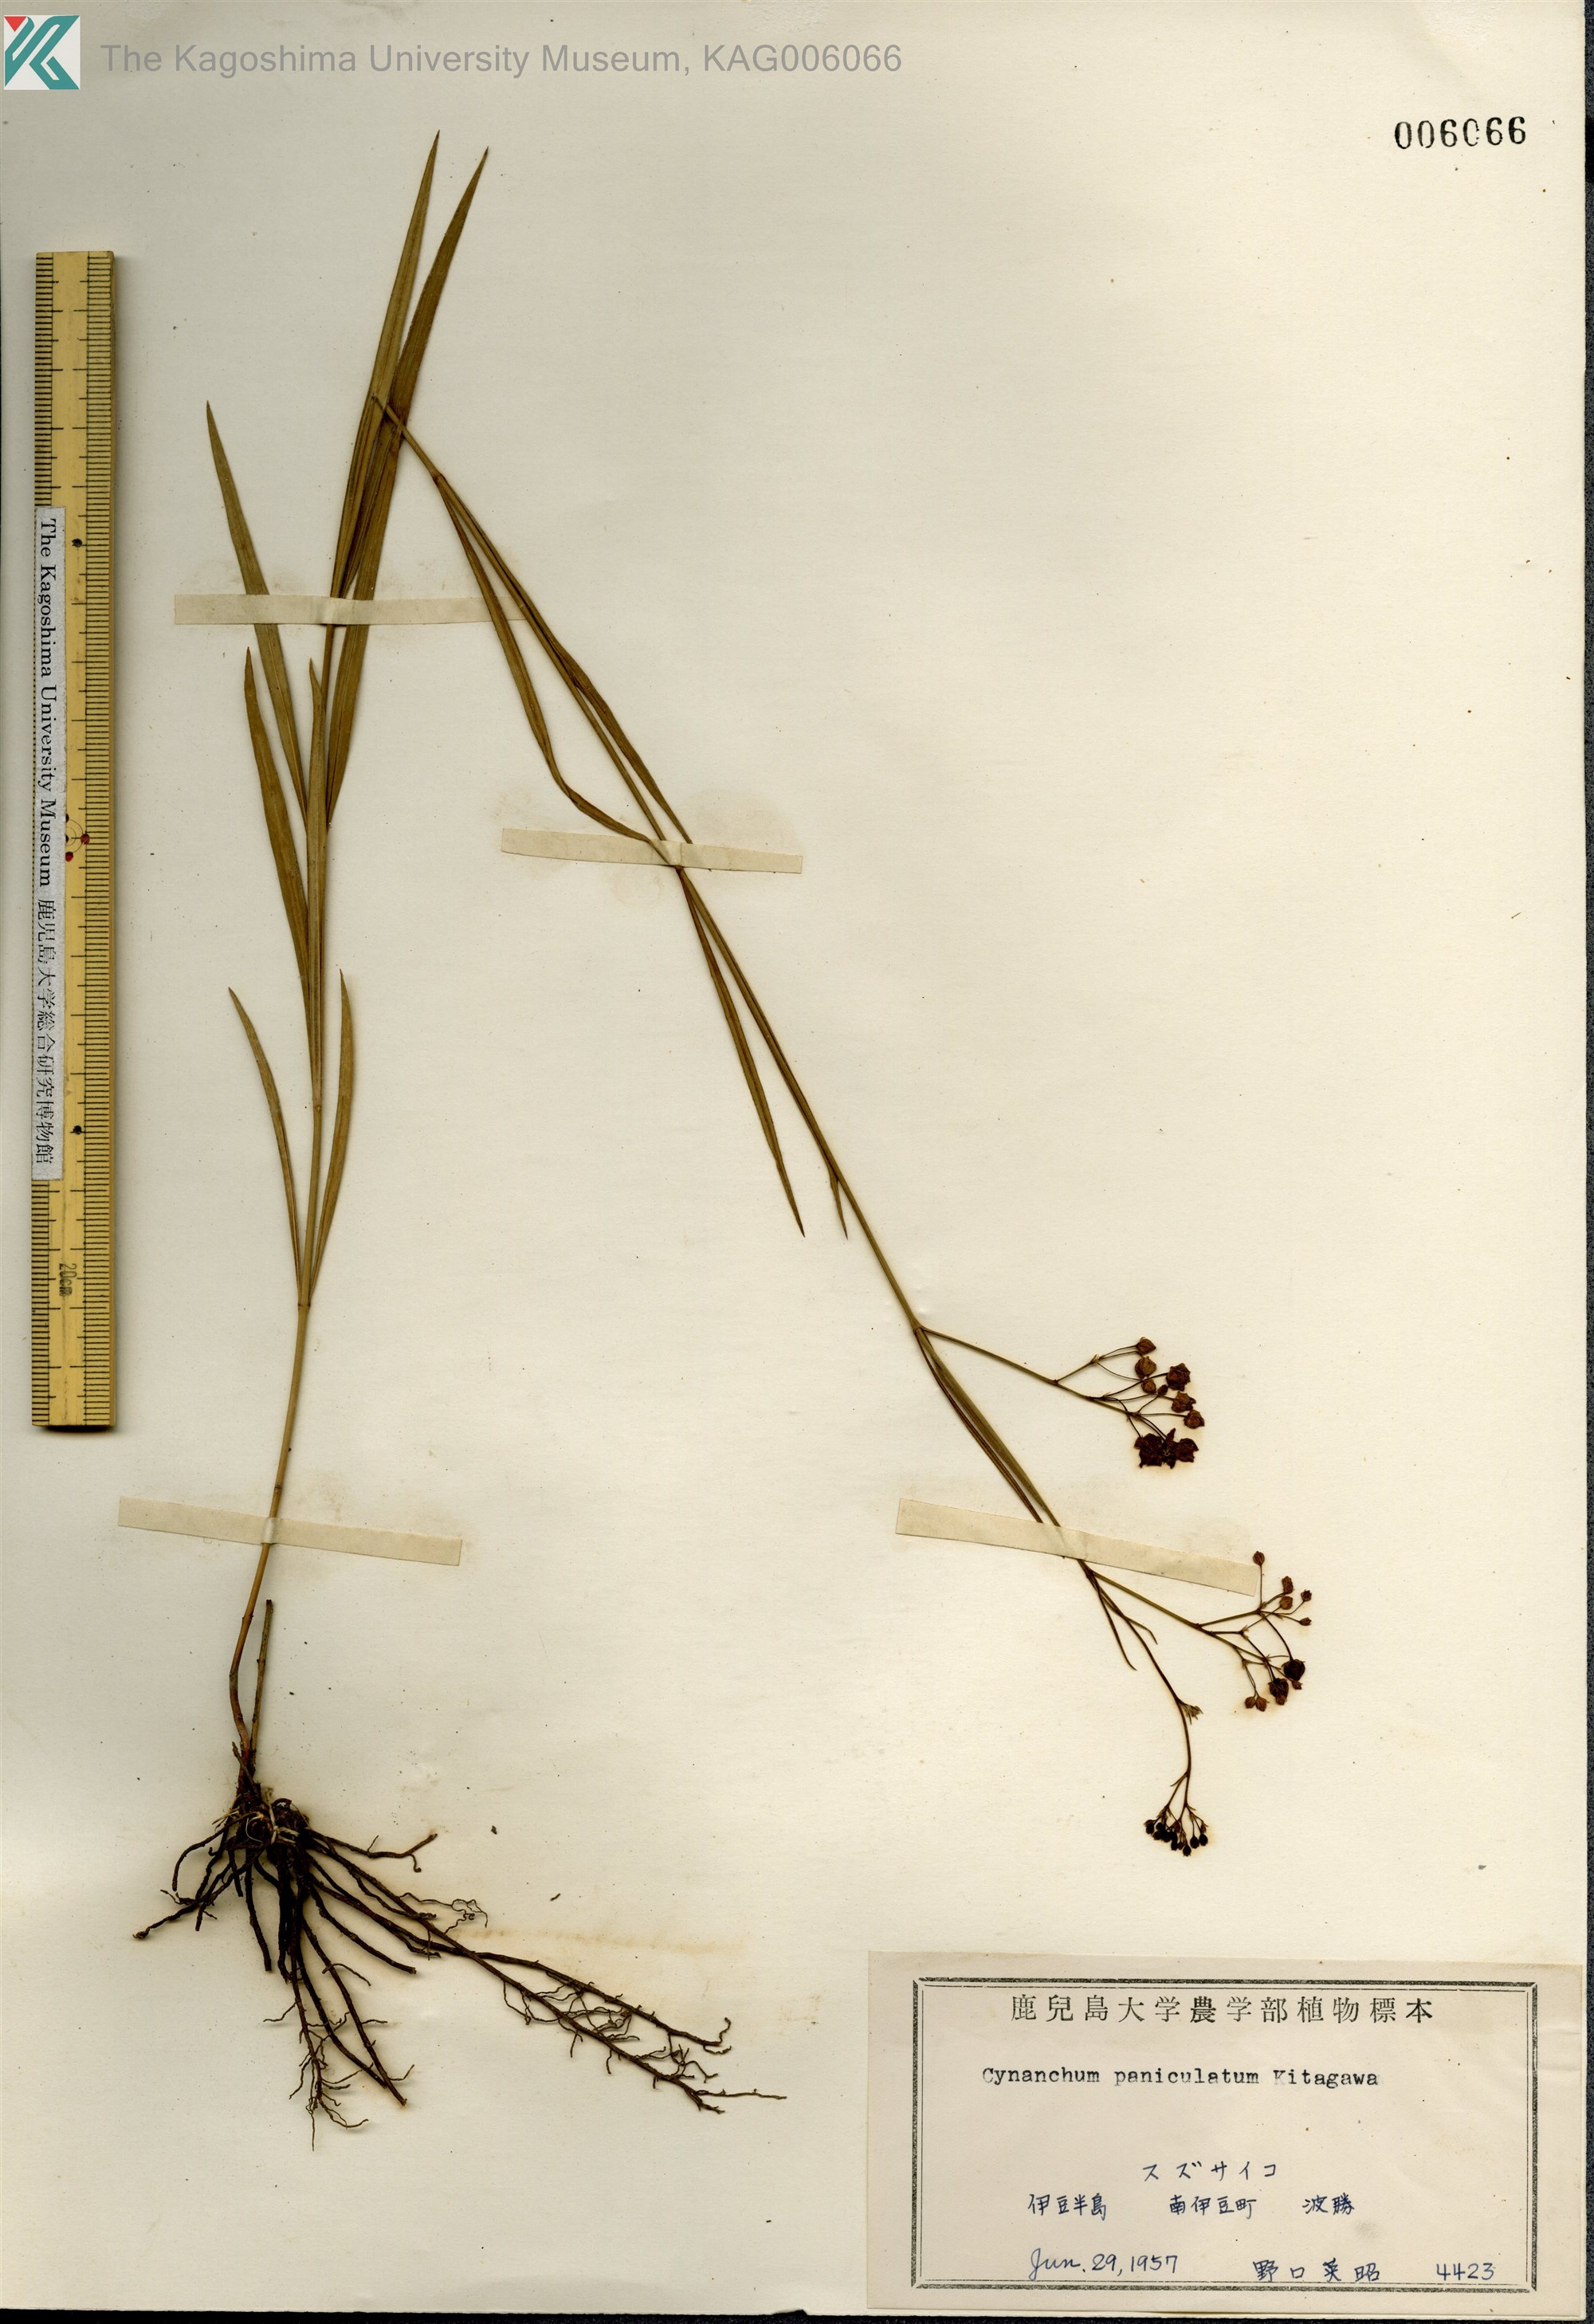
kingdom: Plantae
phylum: Tracheophyta
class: Magnoliopsida
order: Gentianales
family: Apocynaceae
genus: Vincetoxicum
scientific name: Vincetoxicum mukdenense
